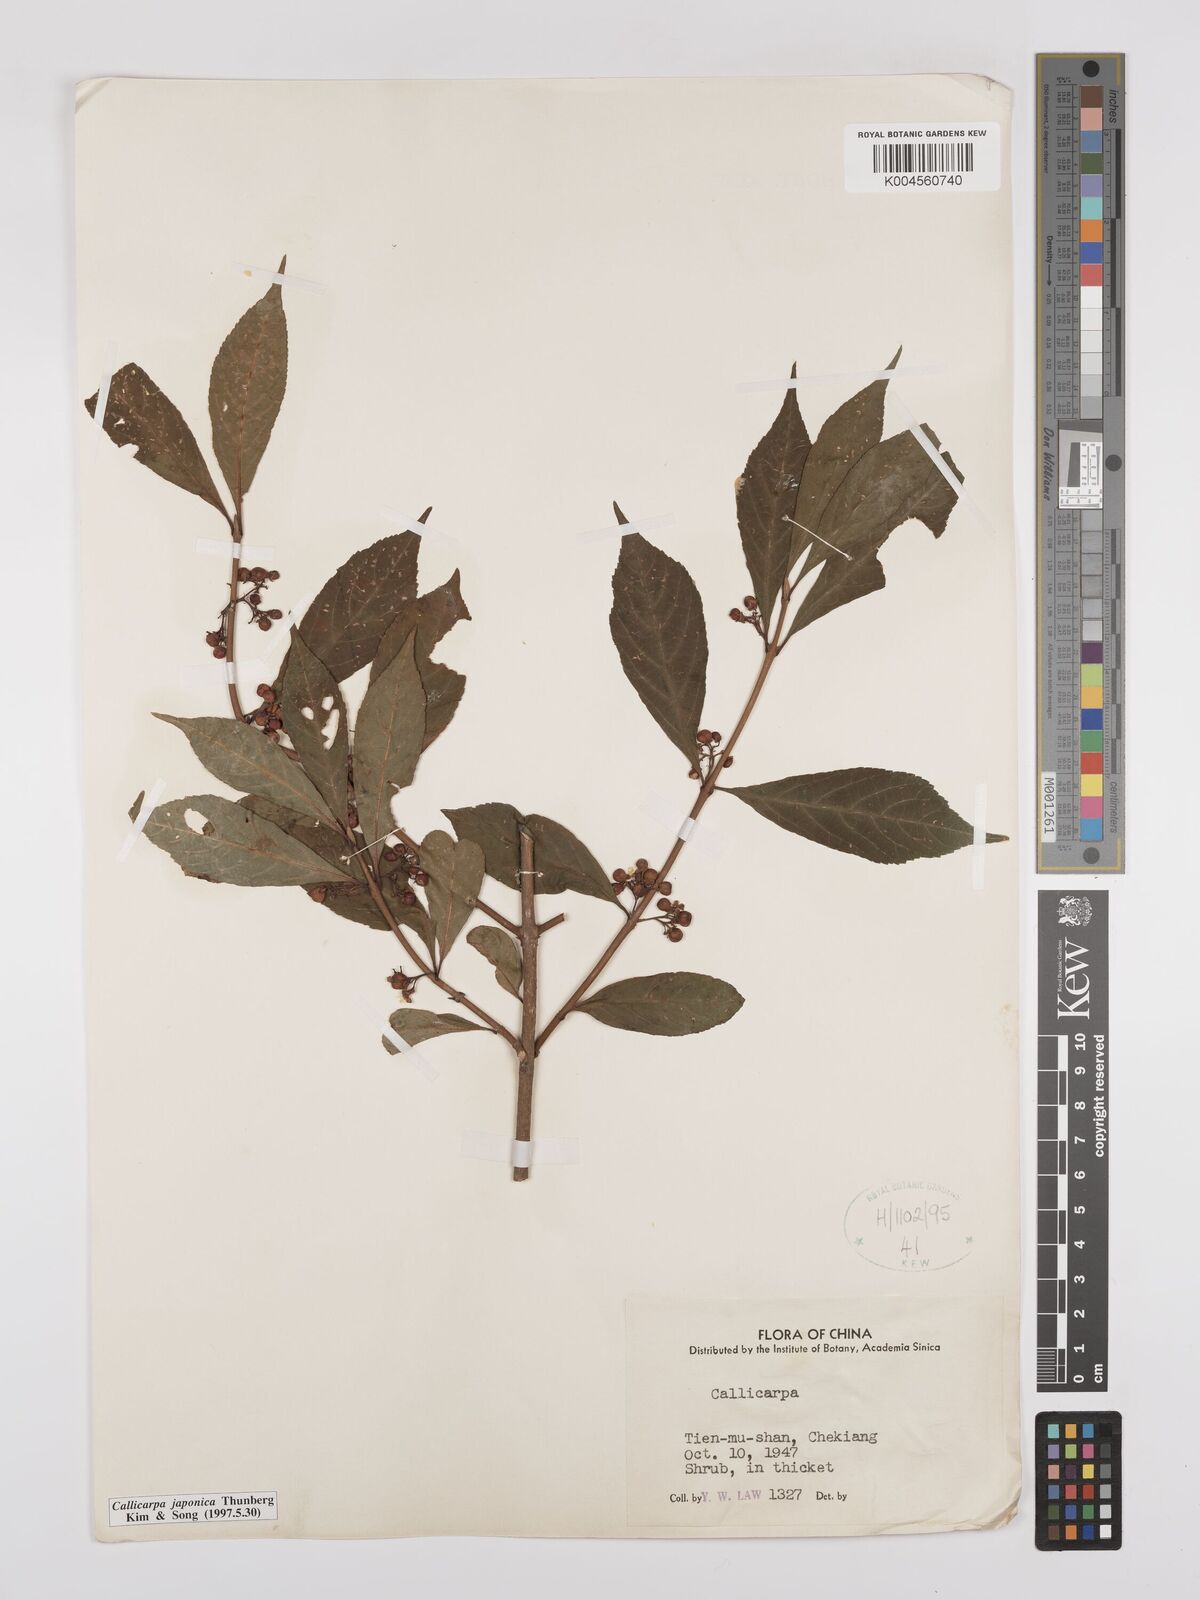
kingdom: Plantae
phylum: Tracheophyta
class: Magnoliopsida
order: Lamiales
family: Lamiaceae
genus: Callicarpa
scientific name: Callicarpa japonica
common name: Japanese beauty-berry
